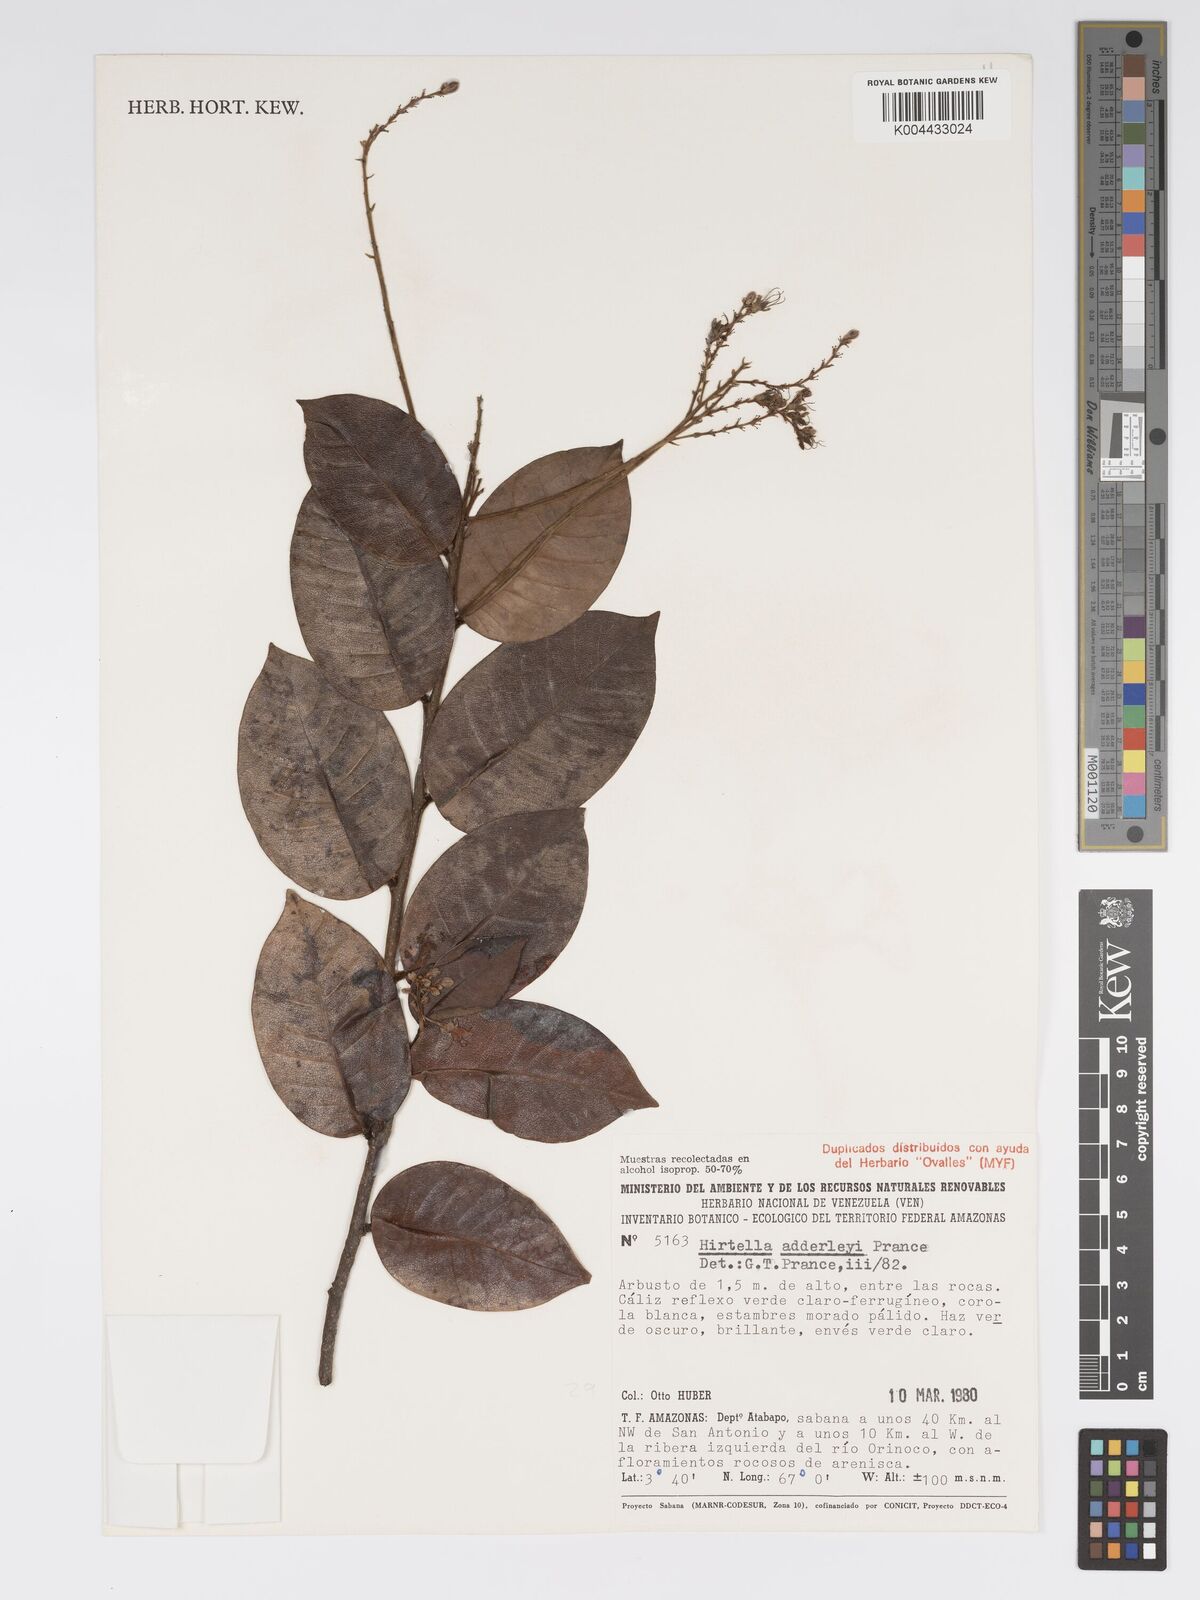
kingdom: Plantae
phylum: Tracheophyta
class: Magnoliopsida
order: Malpighiales
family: Chrysobalanaceae
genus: Hirtella
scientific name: Hirtella adderleyi
